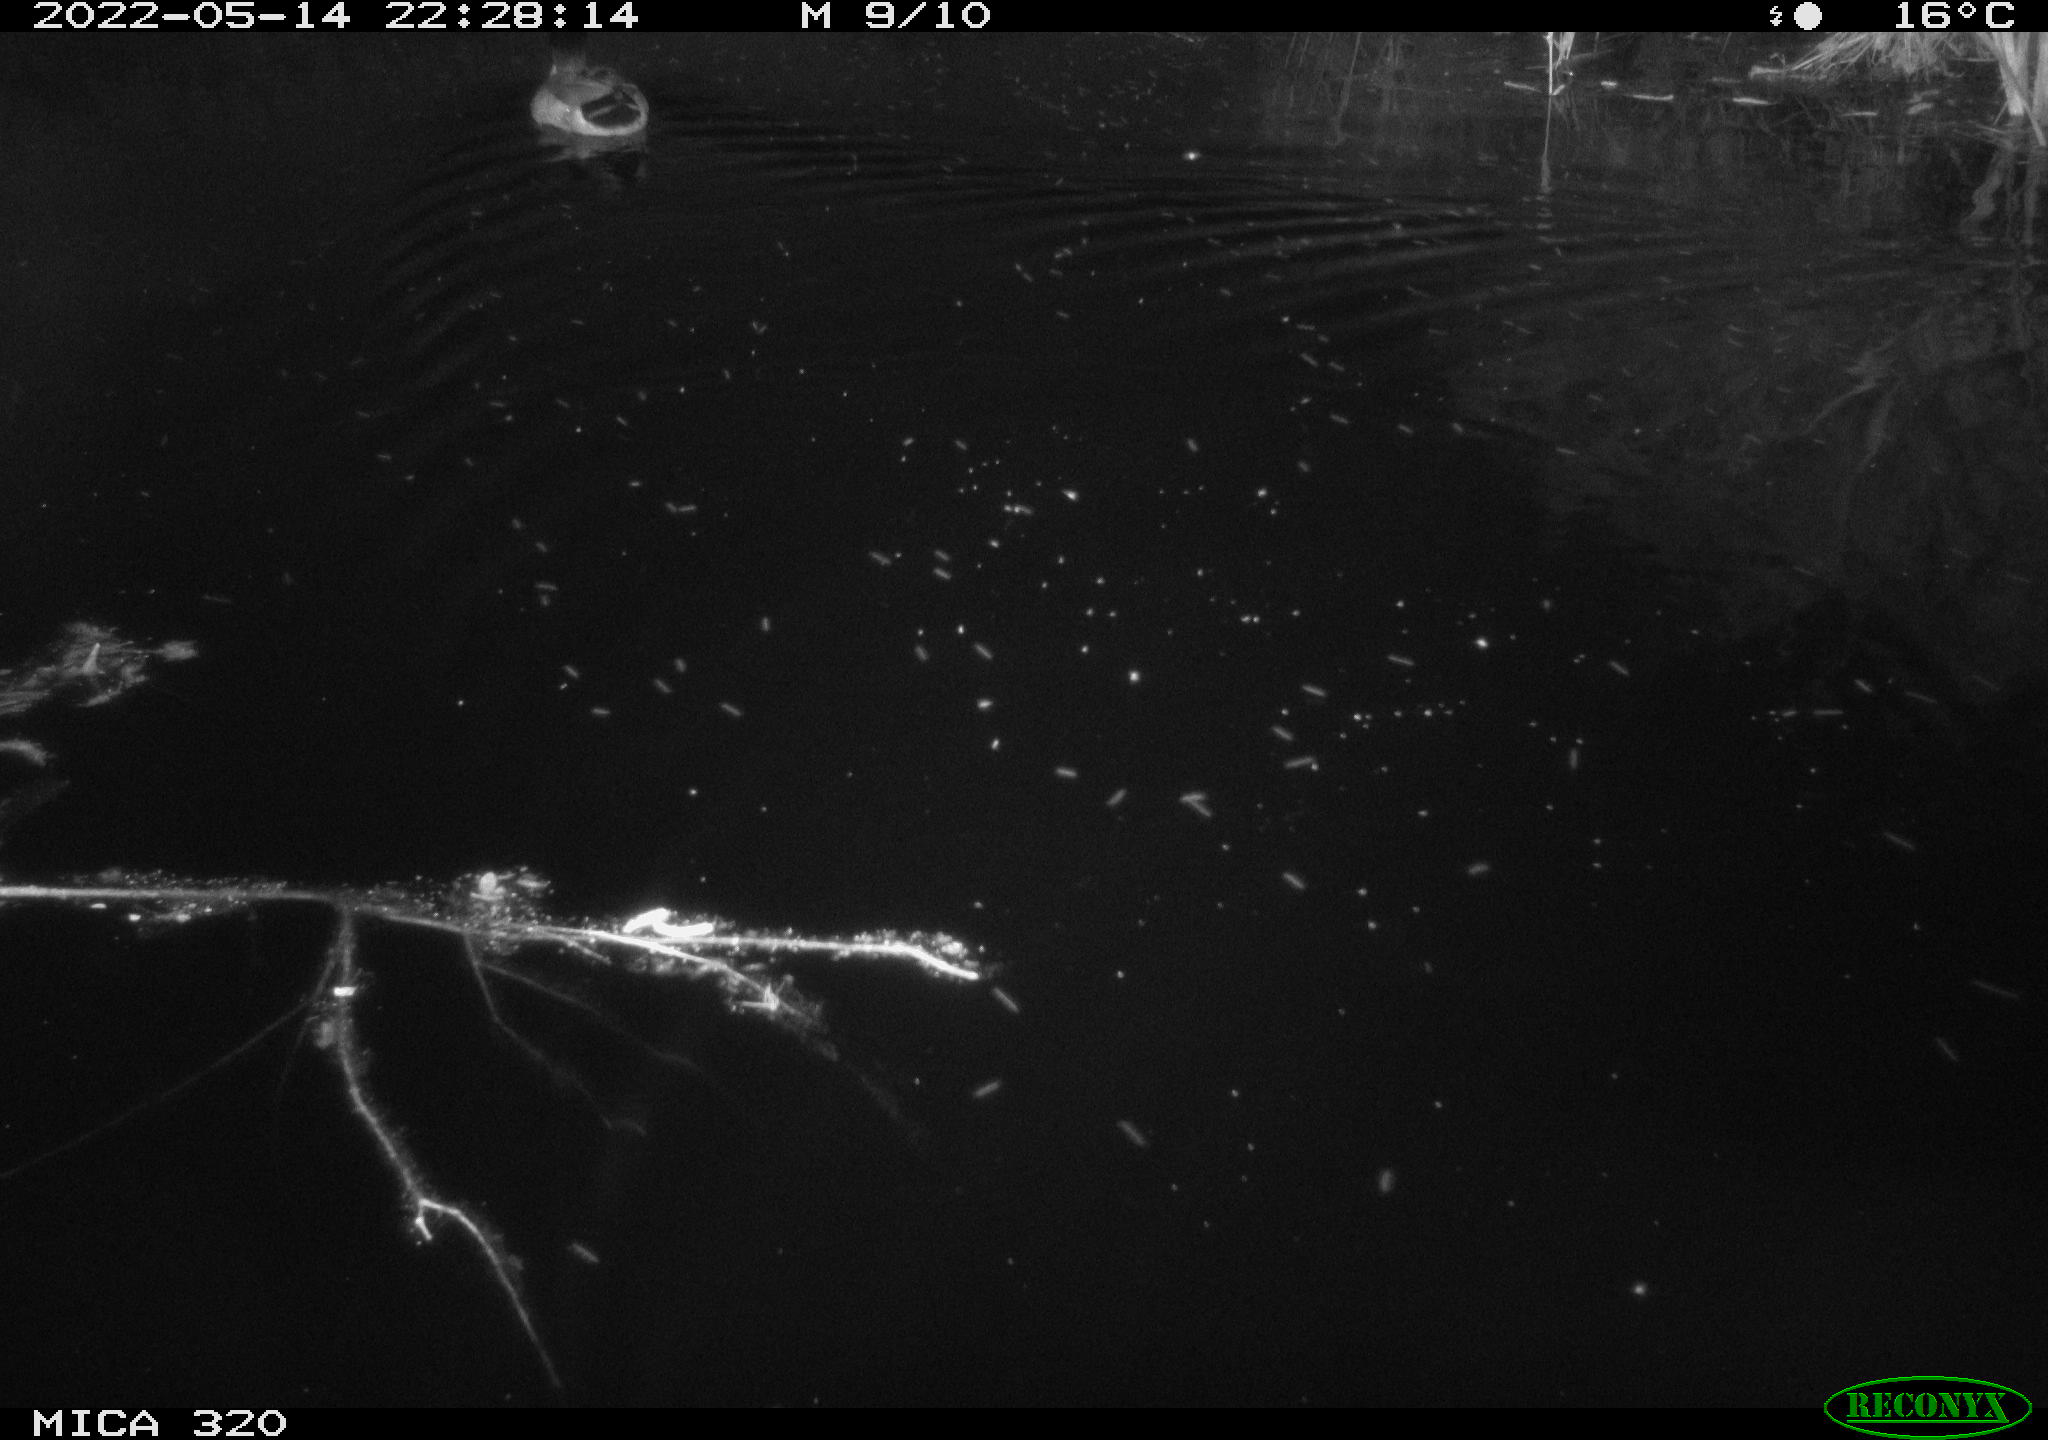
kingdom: Animalia
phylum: Chordata
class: Aves
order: Anseriformes
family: Anatidae
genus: Anas
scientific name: Anas platyrhynchos
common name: Mallard
